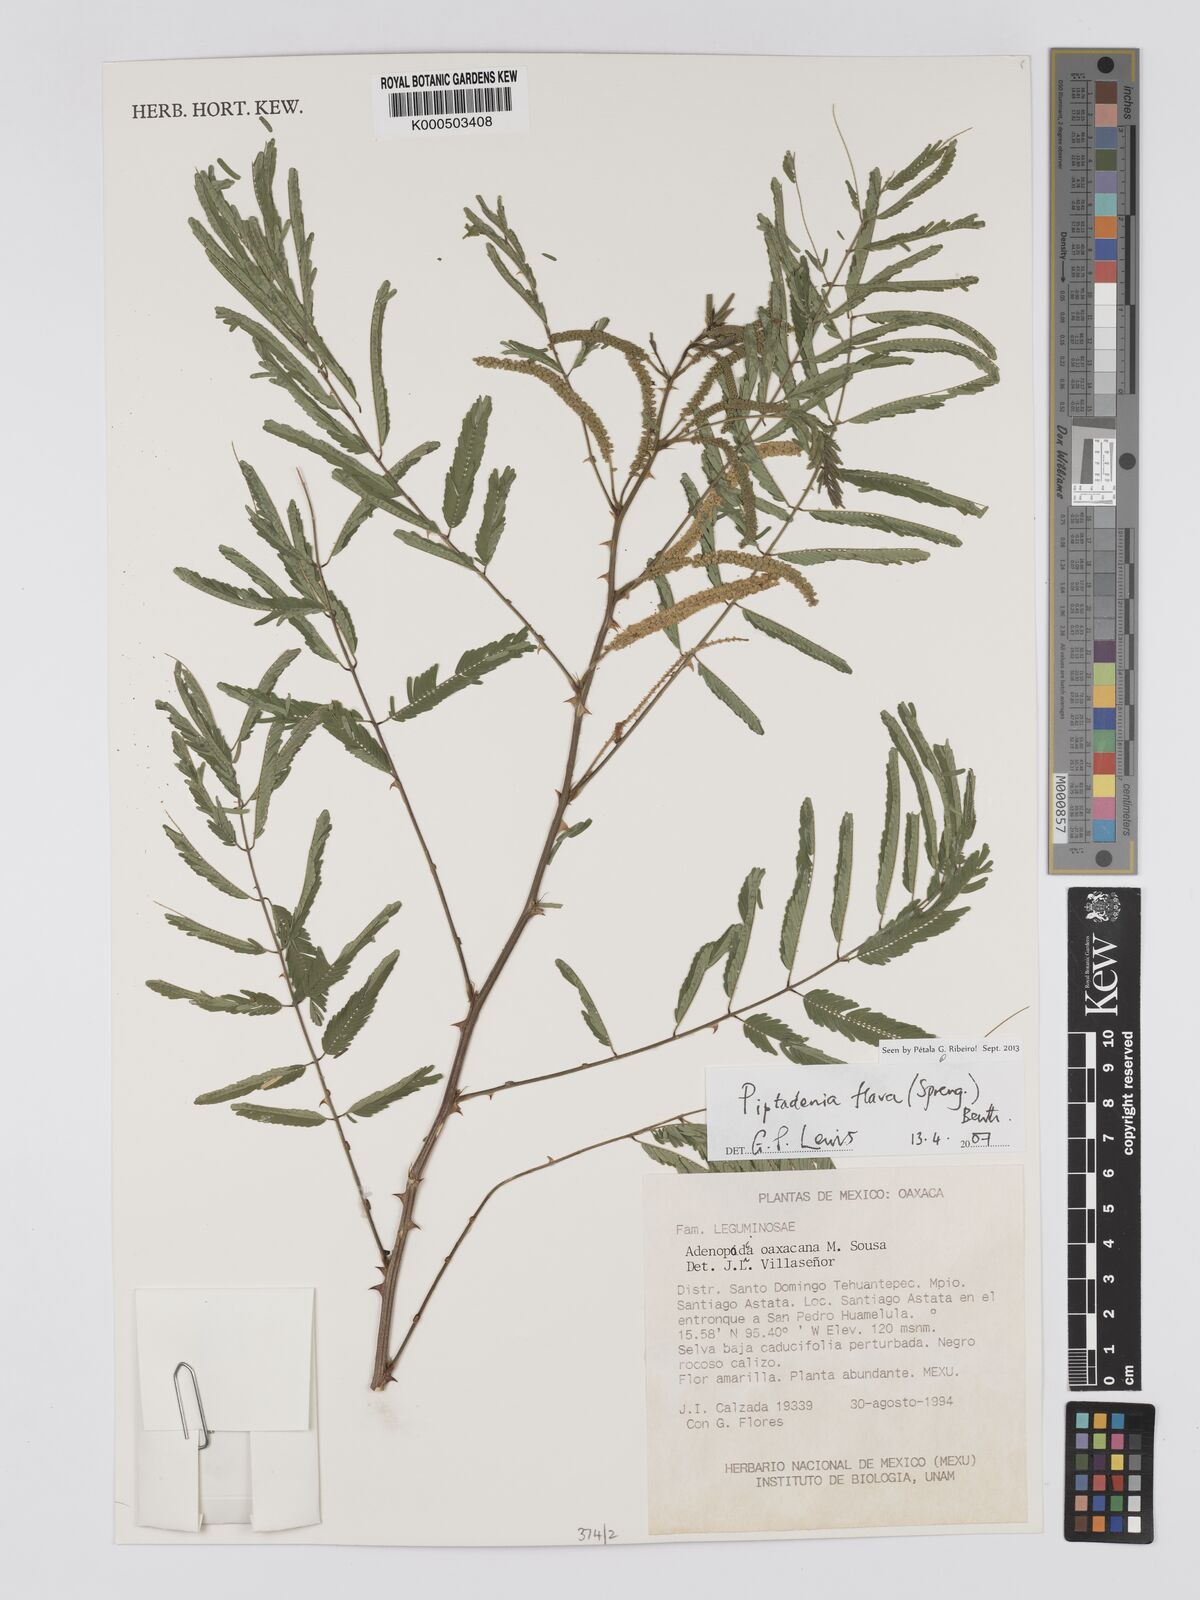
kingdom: Plantae
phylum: Tracheophyta
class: Magnoliopsida
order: Fabales
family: Fabaceae
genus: Piptadenia
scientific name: Piptadenia retusa
